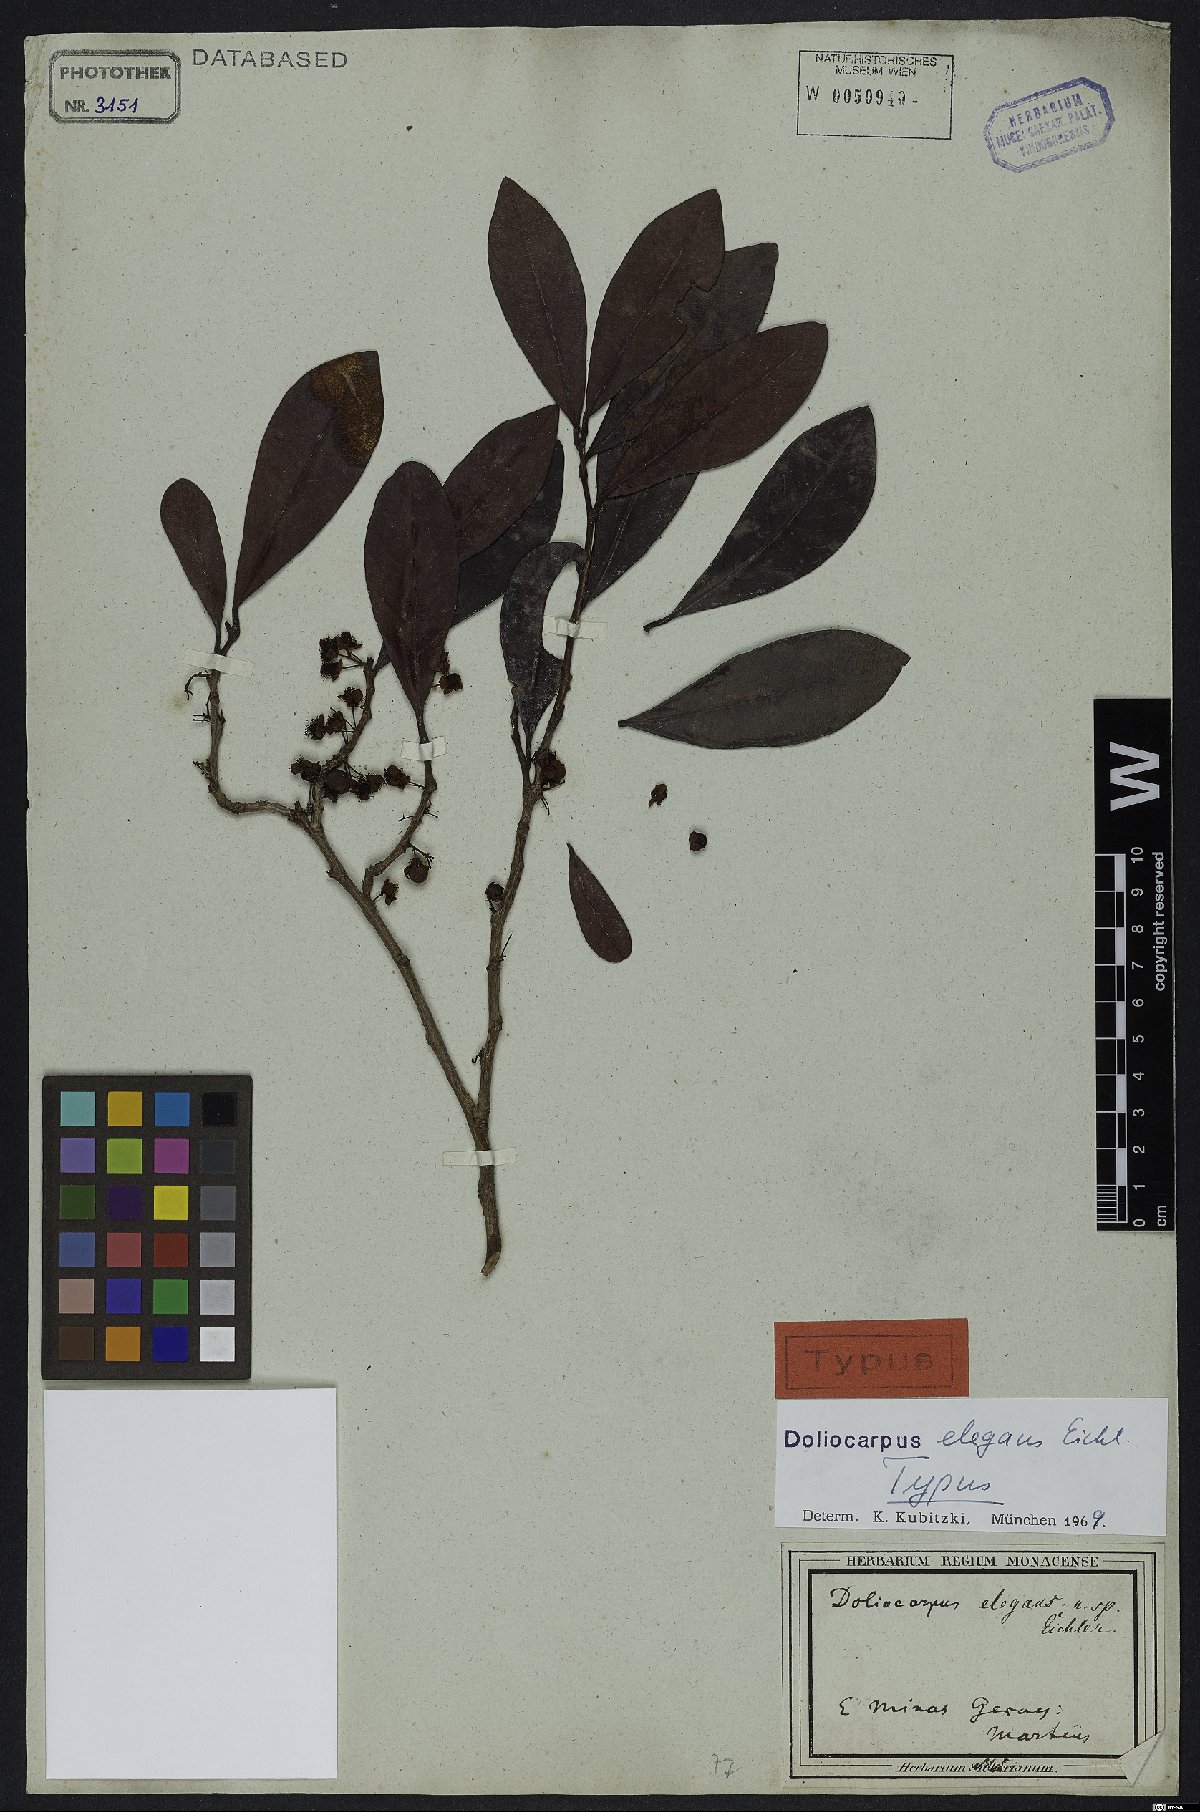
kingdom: Plantae
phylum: Tracheophyta
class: Magnoliopsida
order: Dilleniales
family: Dilleniaceae
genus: Doliocarpus
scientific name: Doliocarpus elegans
